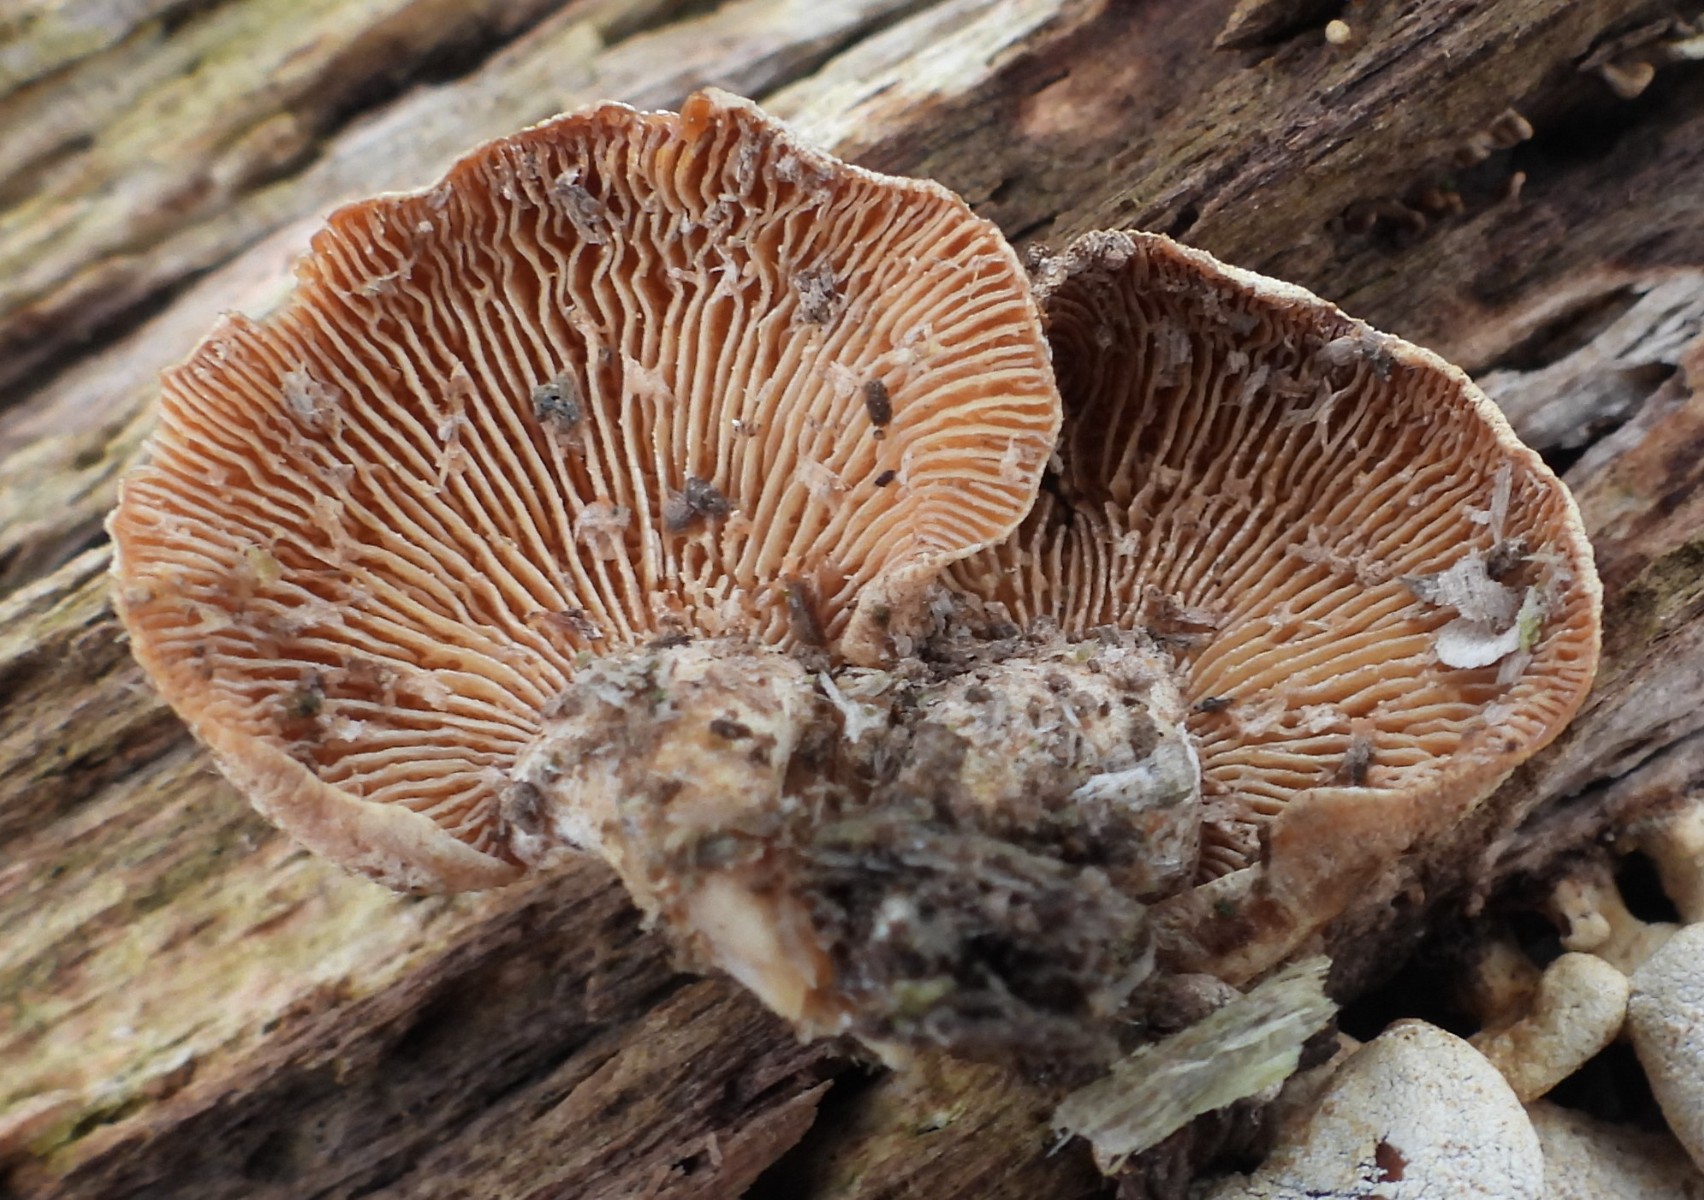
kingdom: Fungi
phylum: Basidiomycota
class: Agaricomycetes
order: Agaricales
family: Mycenaceae
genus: Panellus
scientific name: Panellus stipticus
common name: kliddet epaulethat
